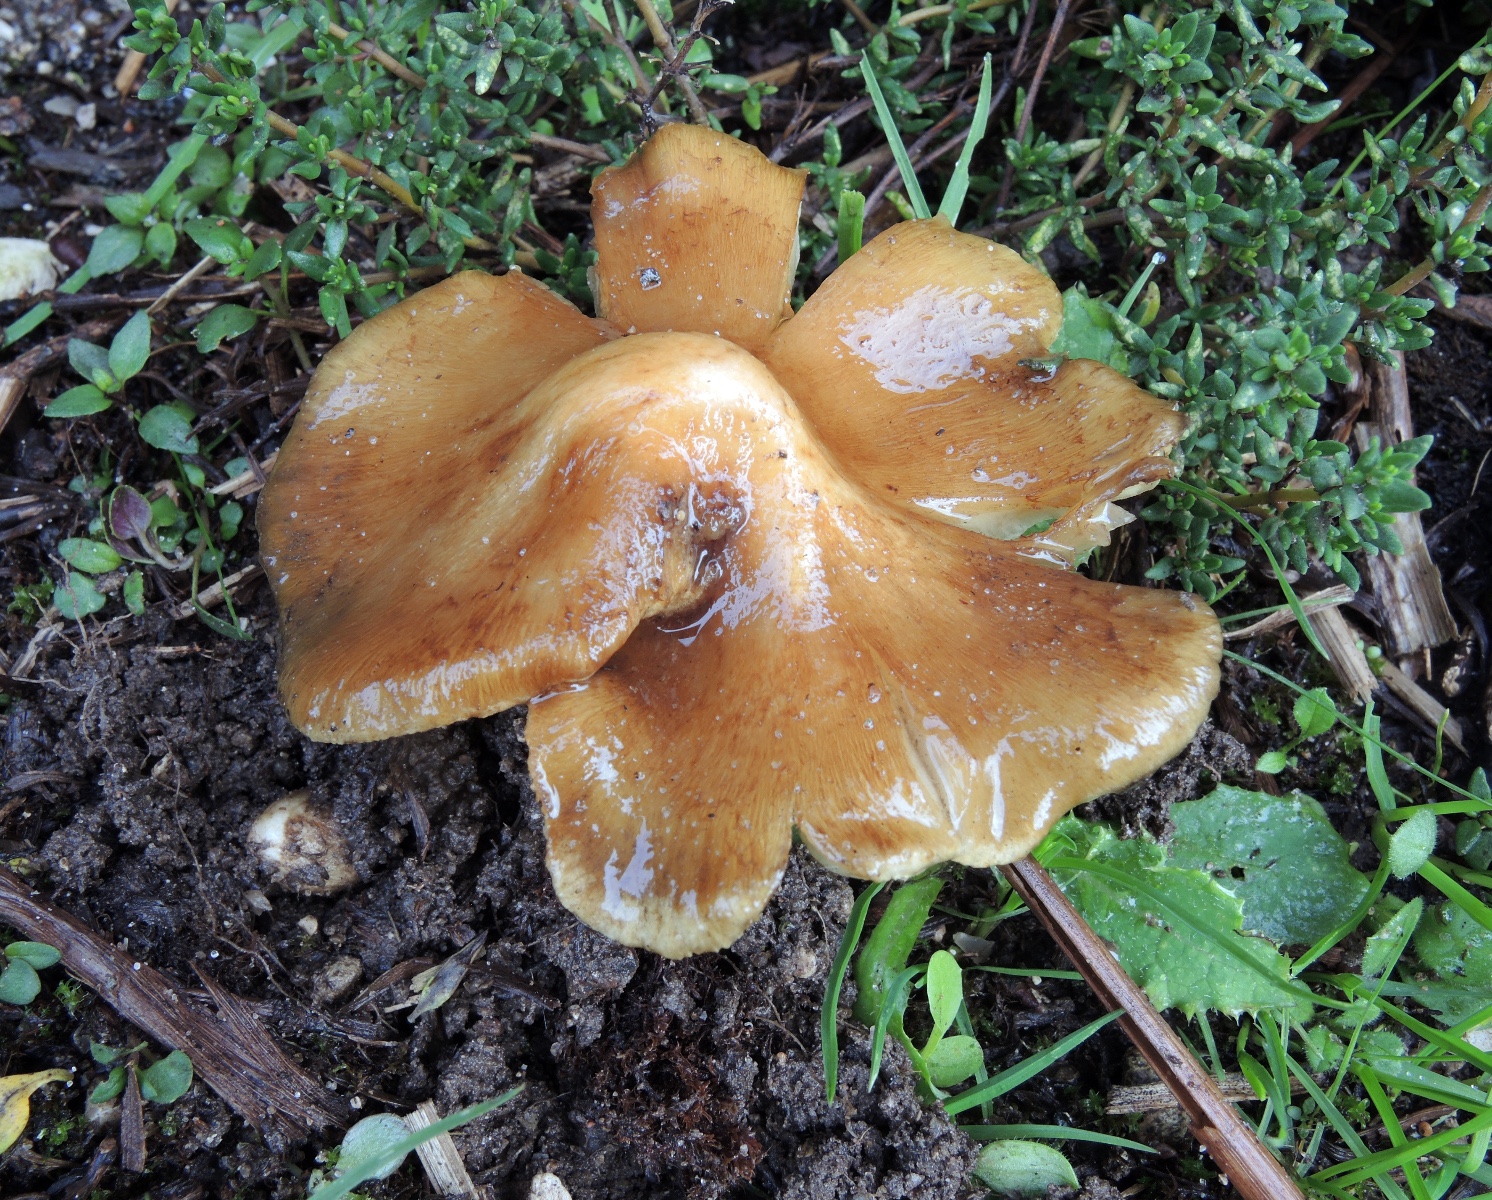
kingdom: Fungi
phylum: Basidiomycota
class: Agaricomycetes
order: Agaricales
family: Inocybaceae
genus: Pseudosperma
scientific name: Pseudosperma squamatum
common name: topskællet trævlhat
